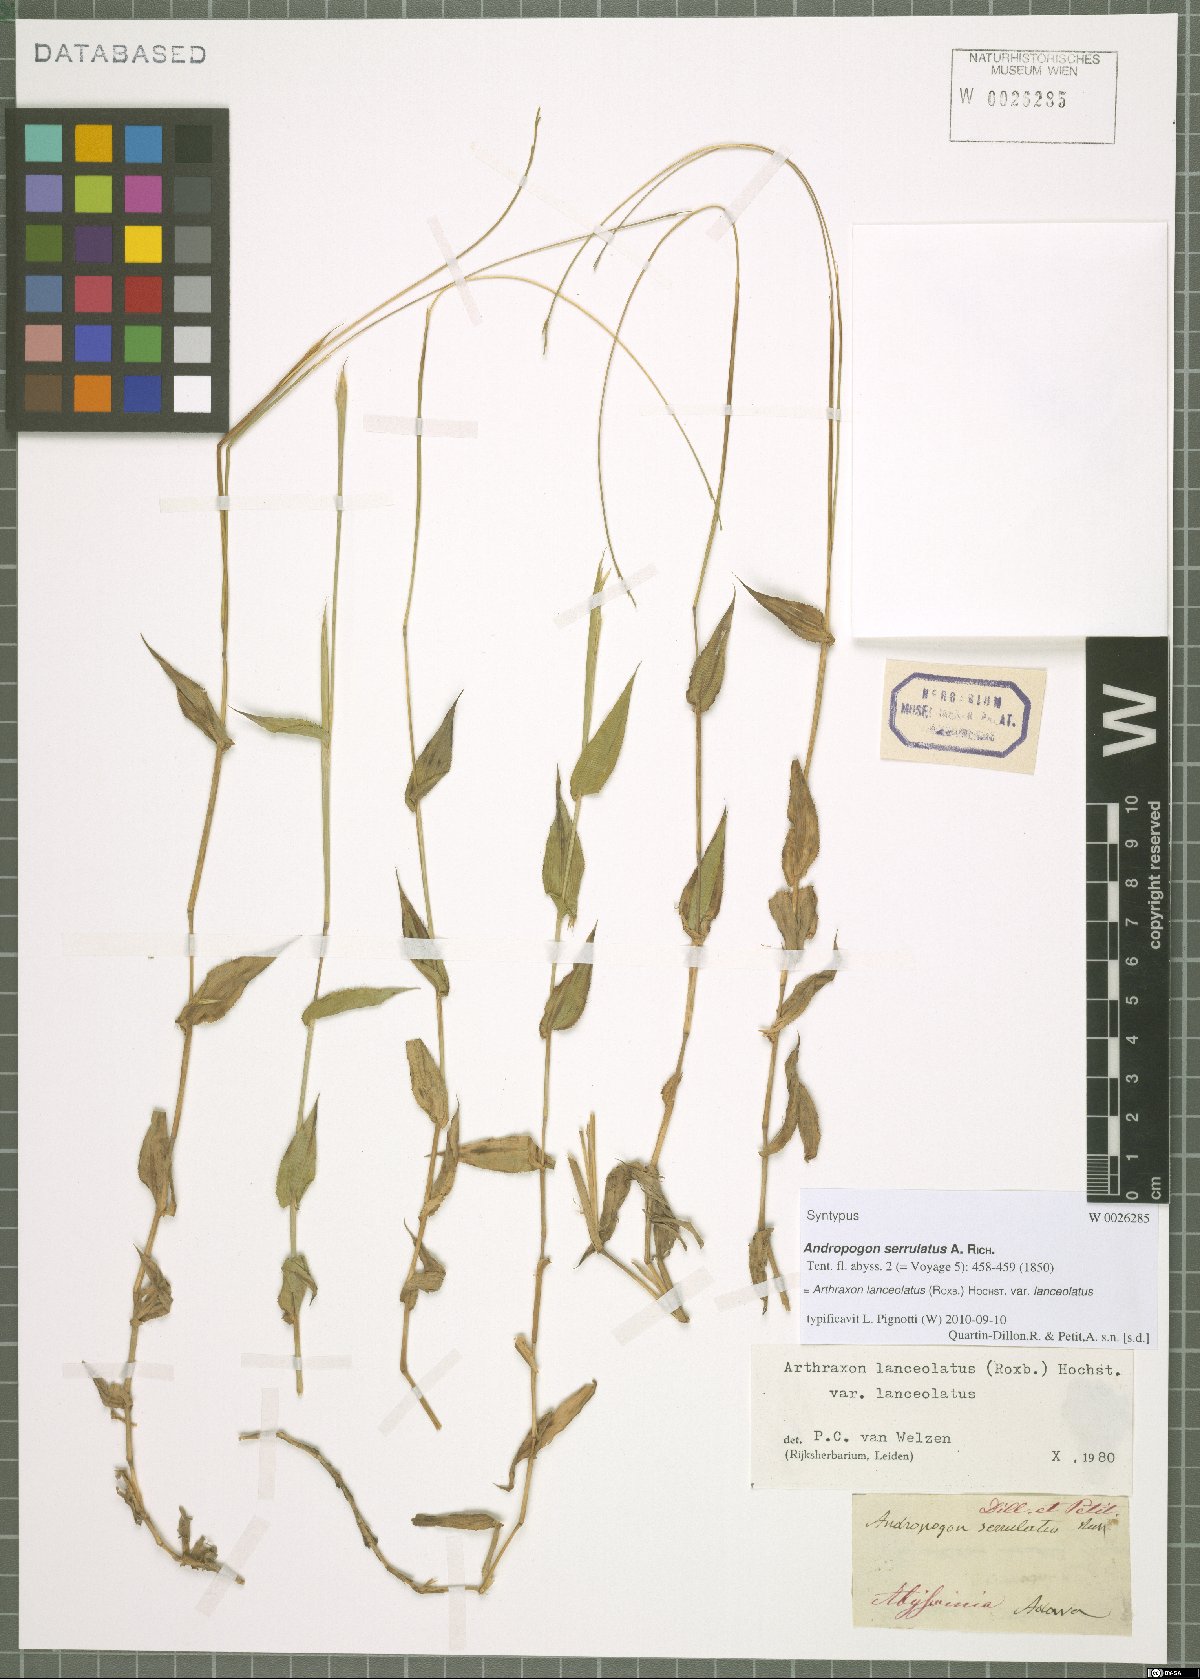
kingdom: Plantae
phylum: Tracheophyta
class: Liliopsida
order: Poales
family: Poaceae
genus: Arthraxon
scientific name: Arthraxon lanceolatus
